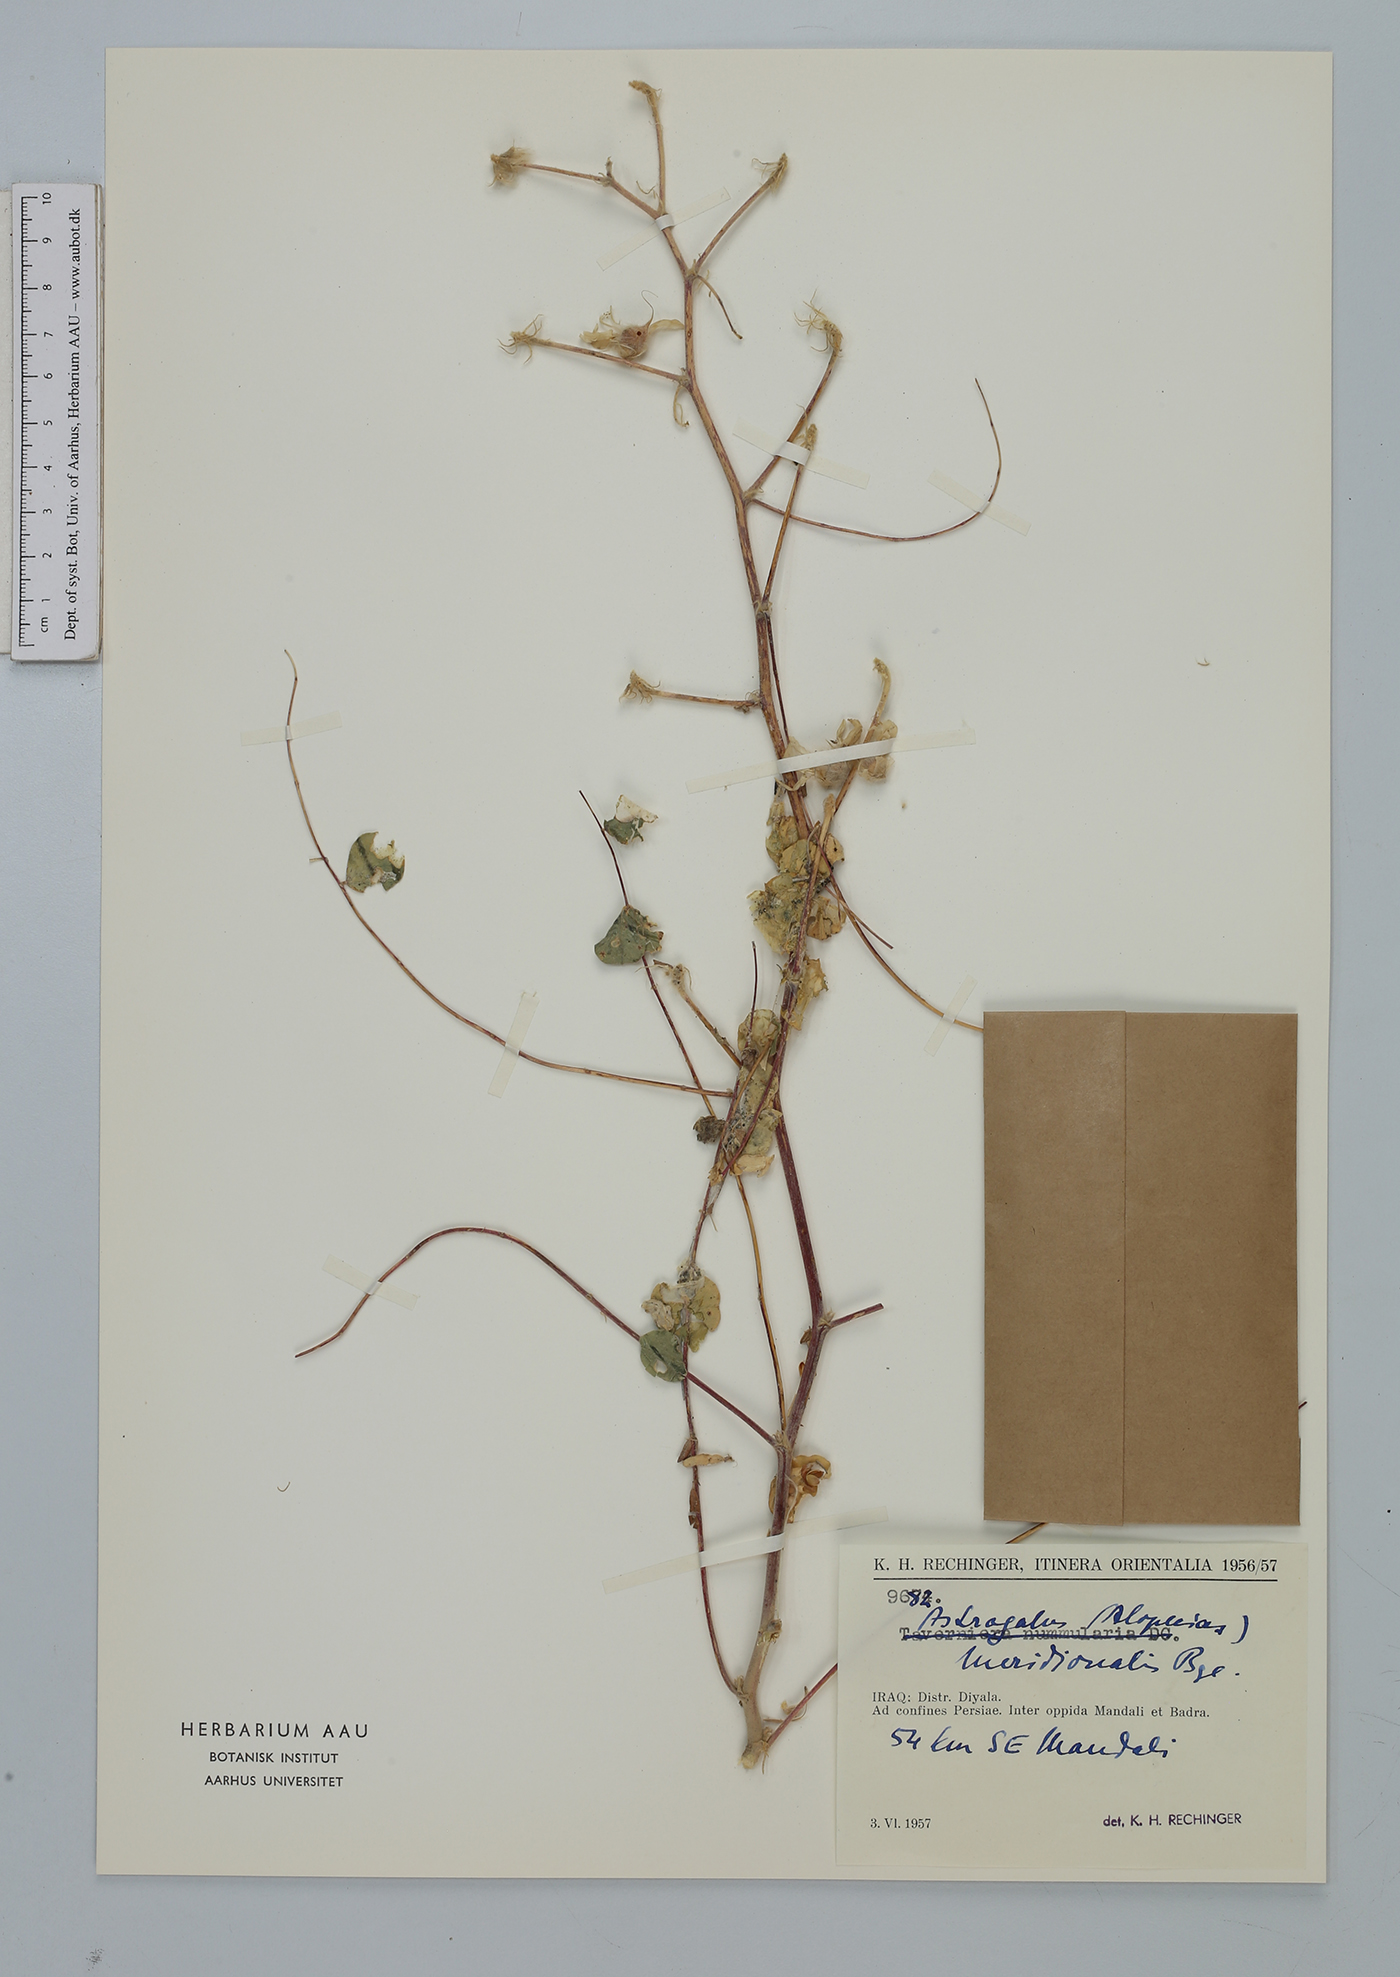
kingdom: Plantae
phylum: Tracheophyta
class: Magnoliopsida
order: Fabales
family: Fabaceae
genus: Astragalus
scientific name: Astragalus kirrindicus
